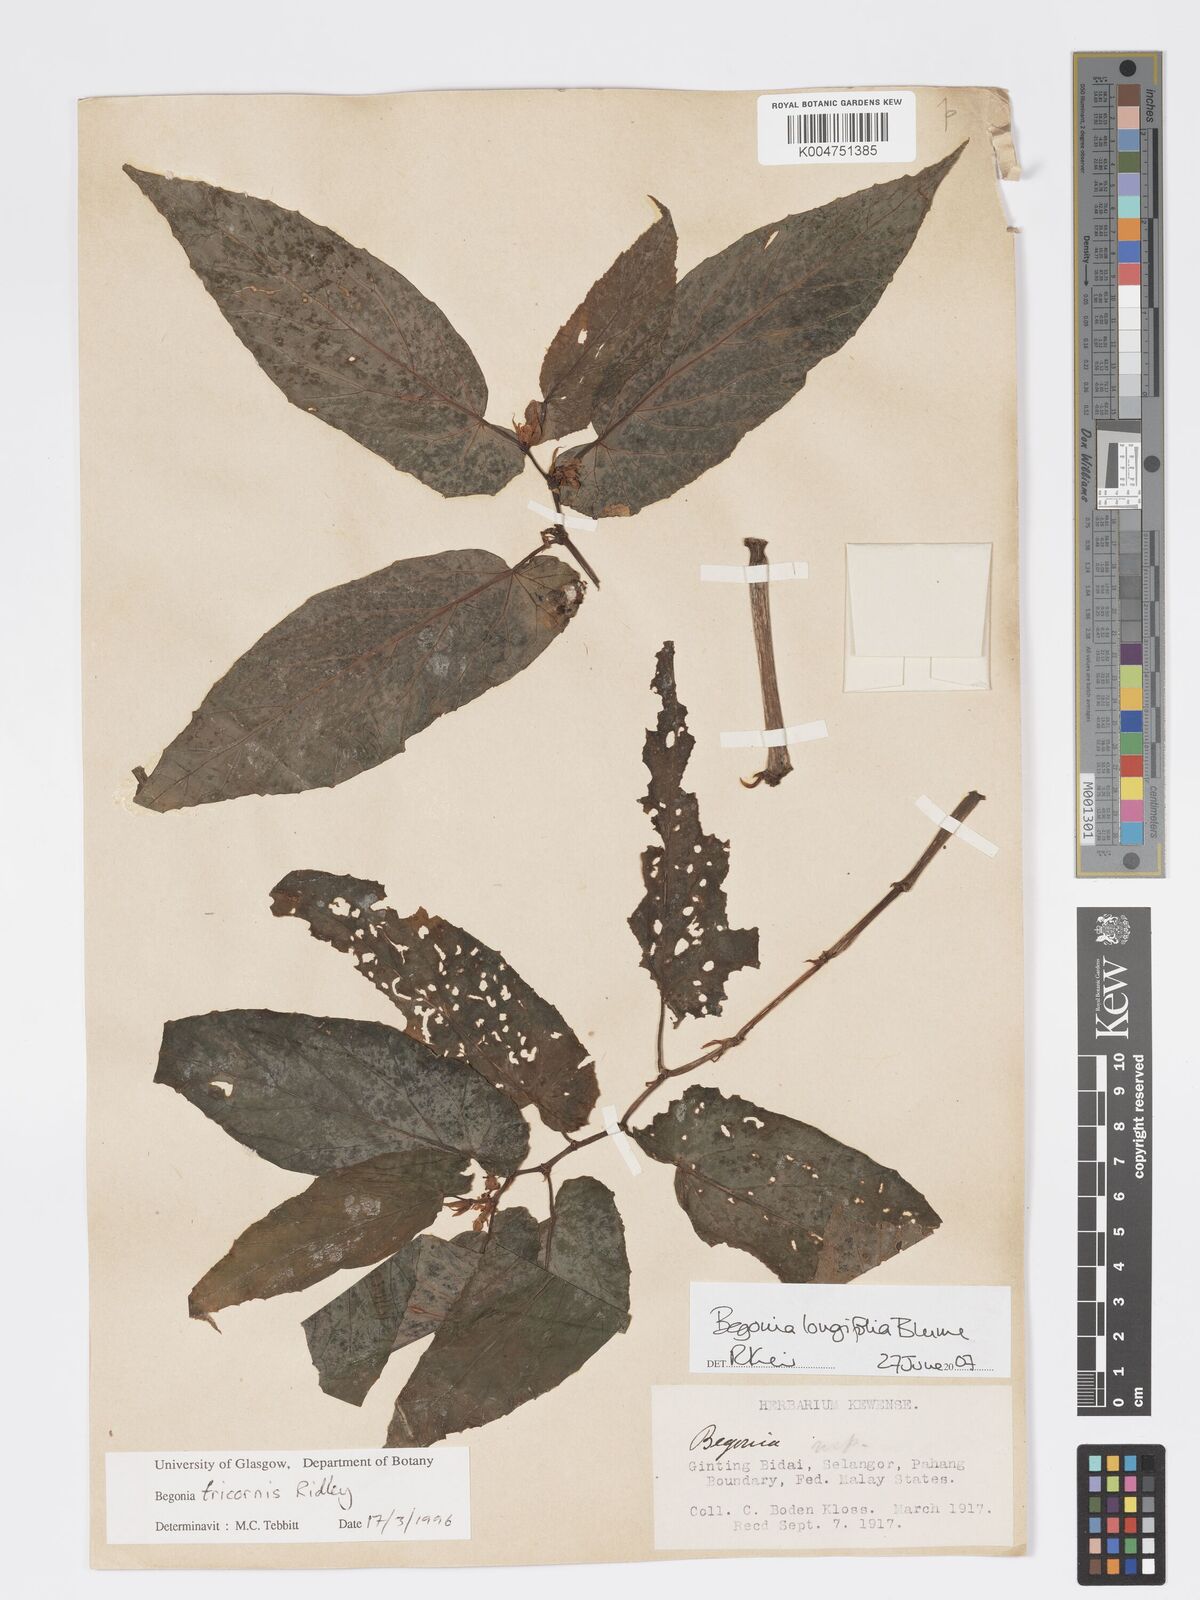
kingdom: Plantae
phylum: Tracheophyta
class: Magnoliopsida
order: Cucurbitales
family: Begoniaceae
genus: Begonia
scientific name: Begonia longifolia
